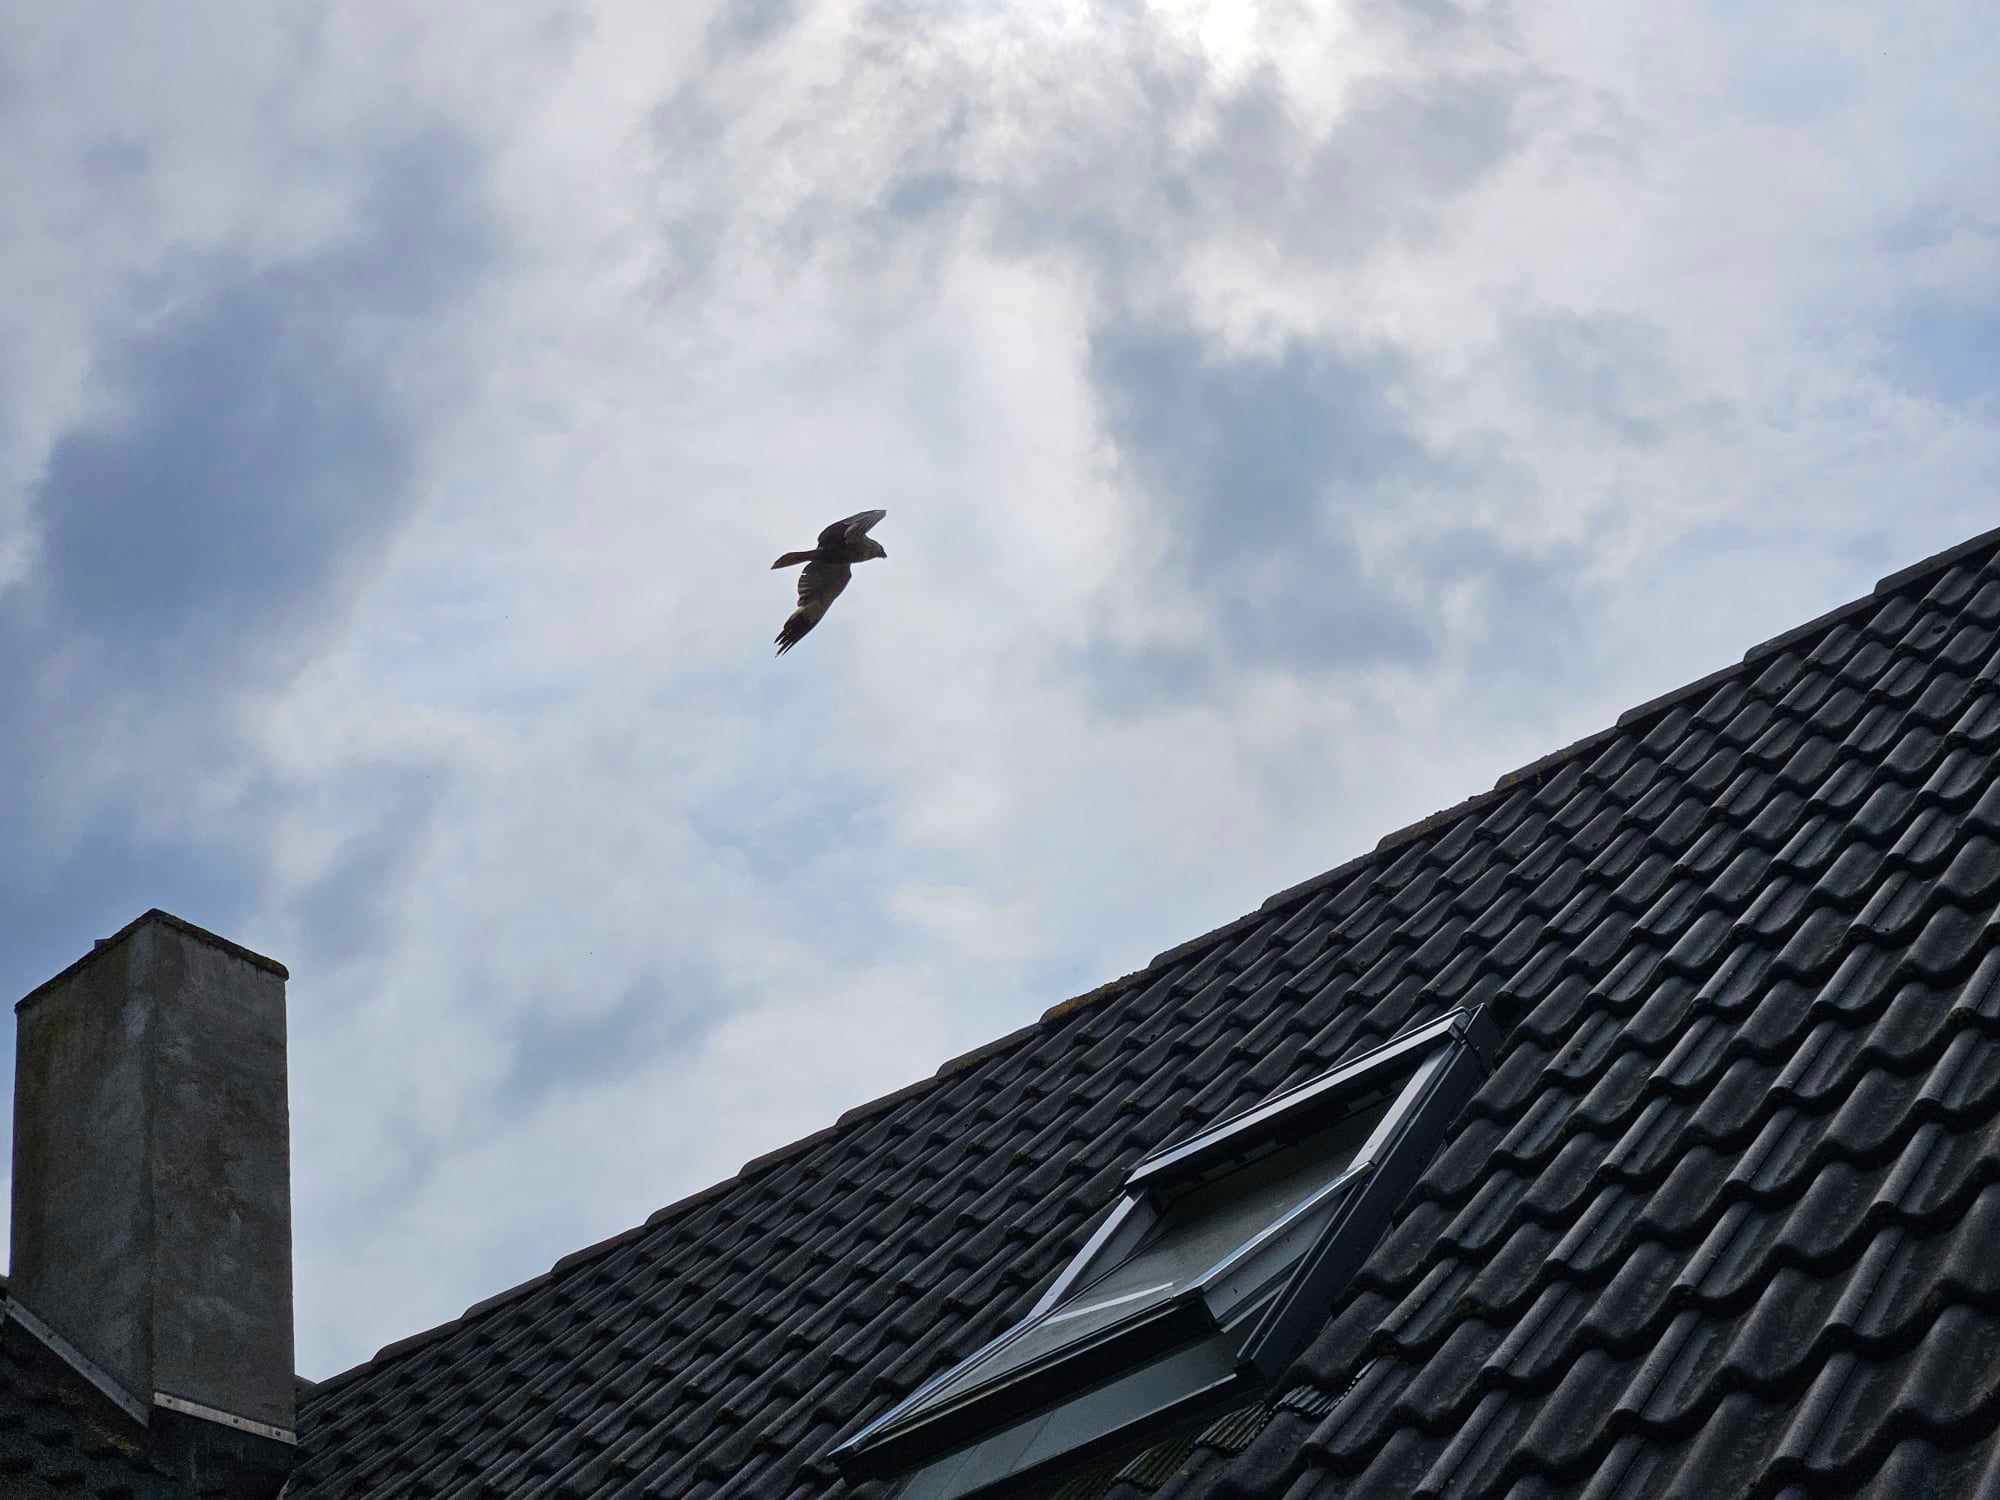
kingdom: Animalia
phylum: Chordata
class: Aves
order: Accipitriformes
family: Accipitridae
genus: Circus
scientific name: Circus aeruginosus
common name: Rørhøg
